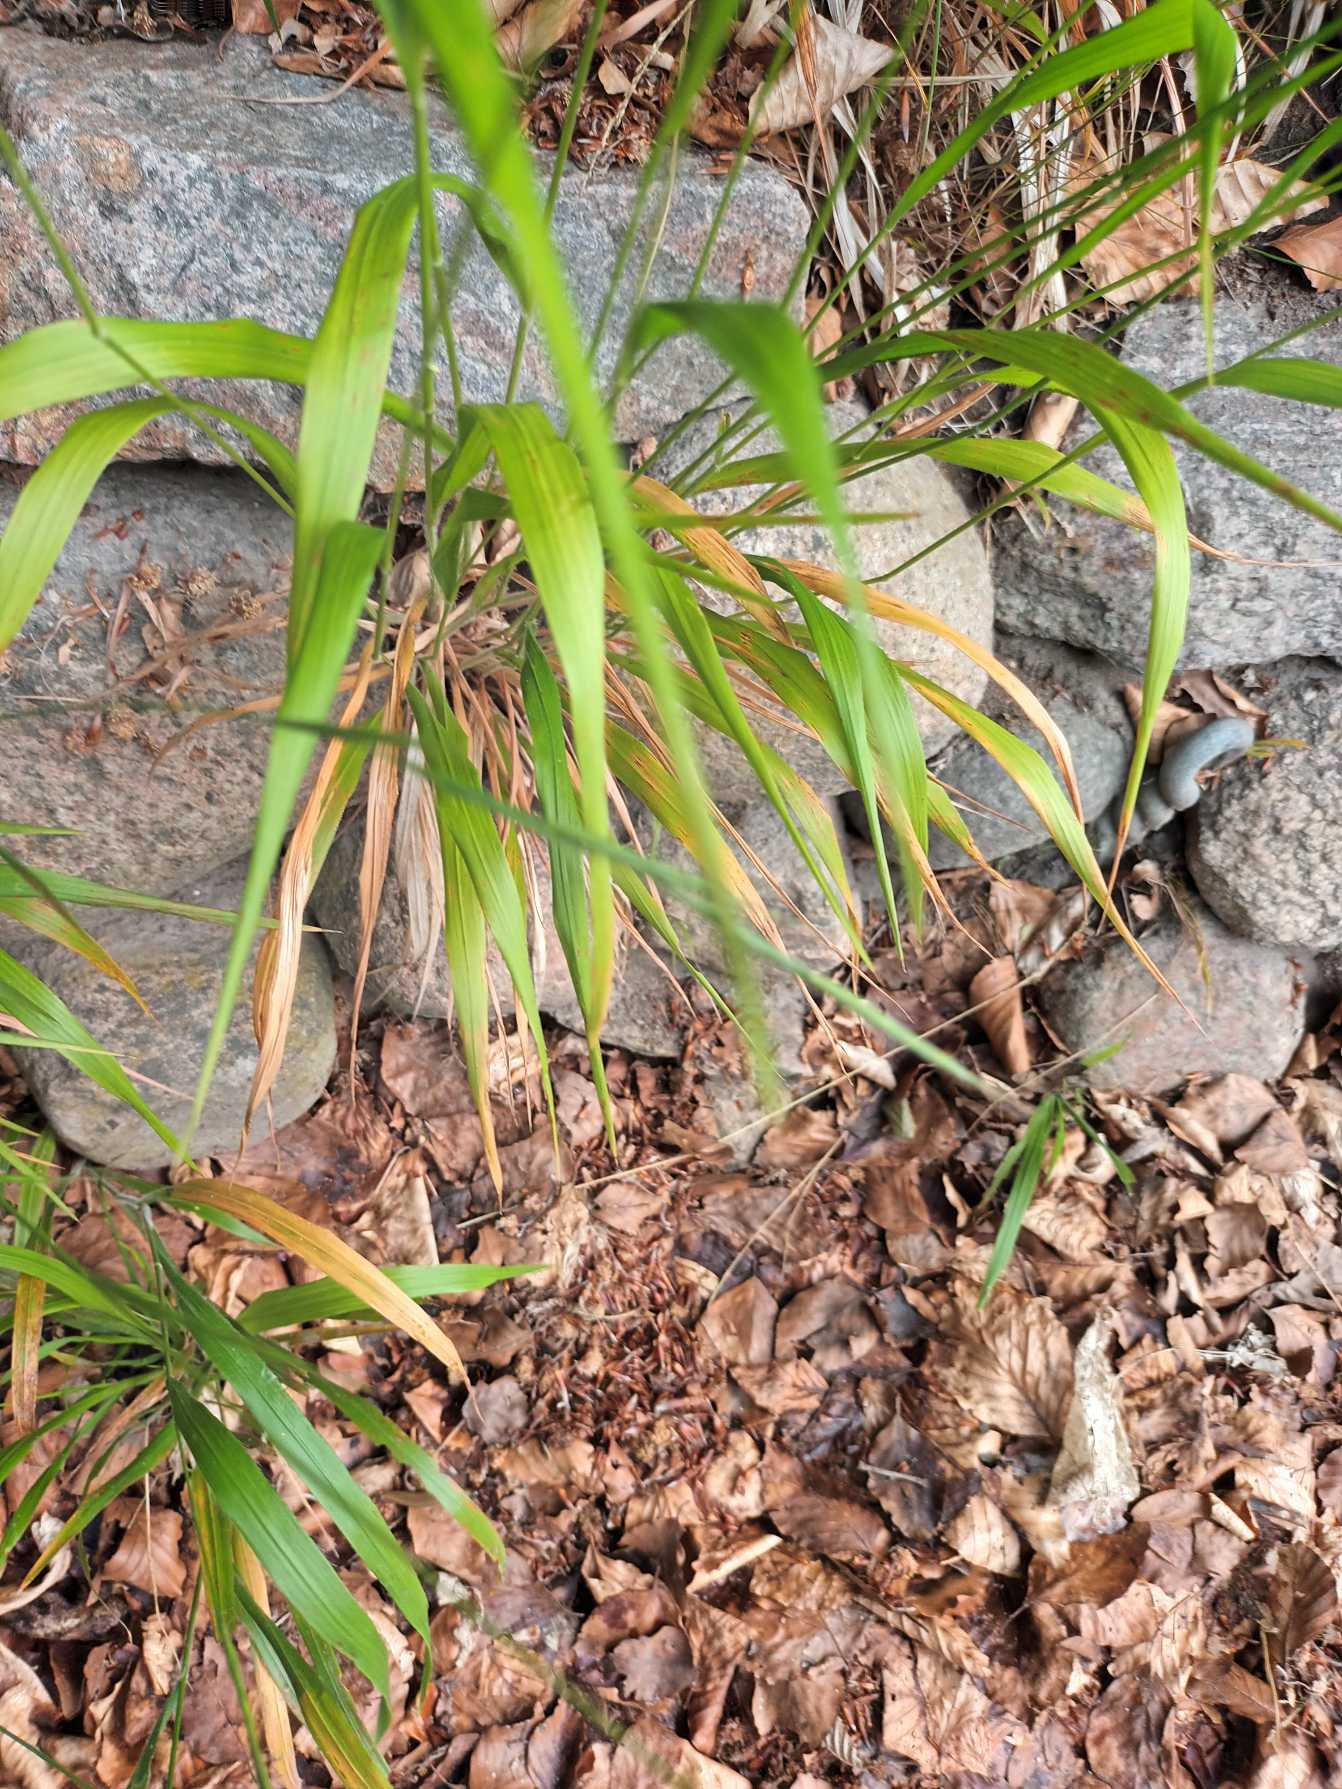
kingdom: Plantae
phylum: Tracheophyta
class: Liliopsida
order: Poales
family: Poaceae
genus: Brachypodium
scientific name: Brachypodium sylvaticum
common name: Skov-stilkaks
